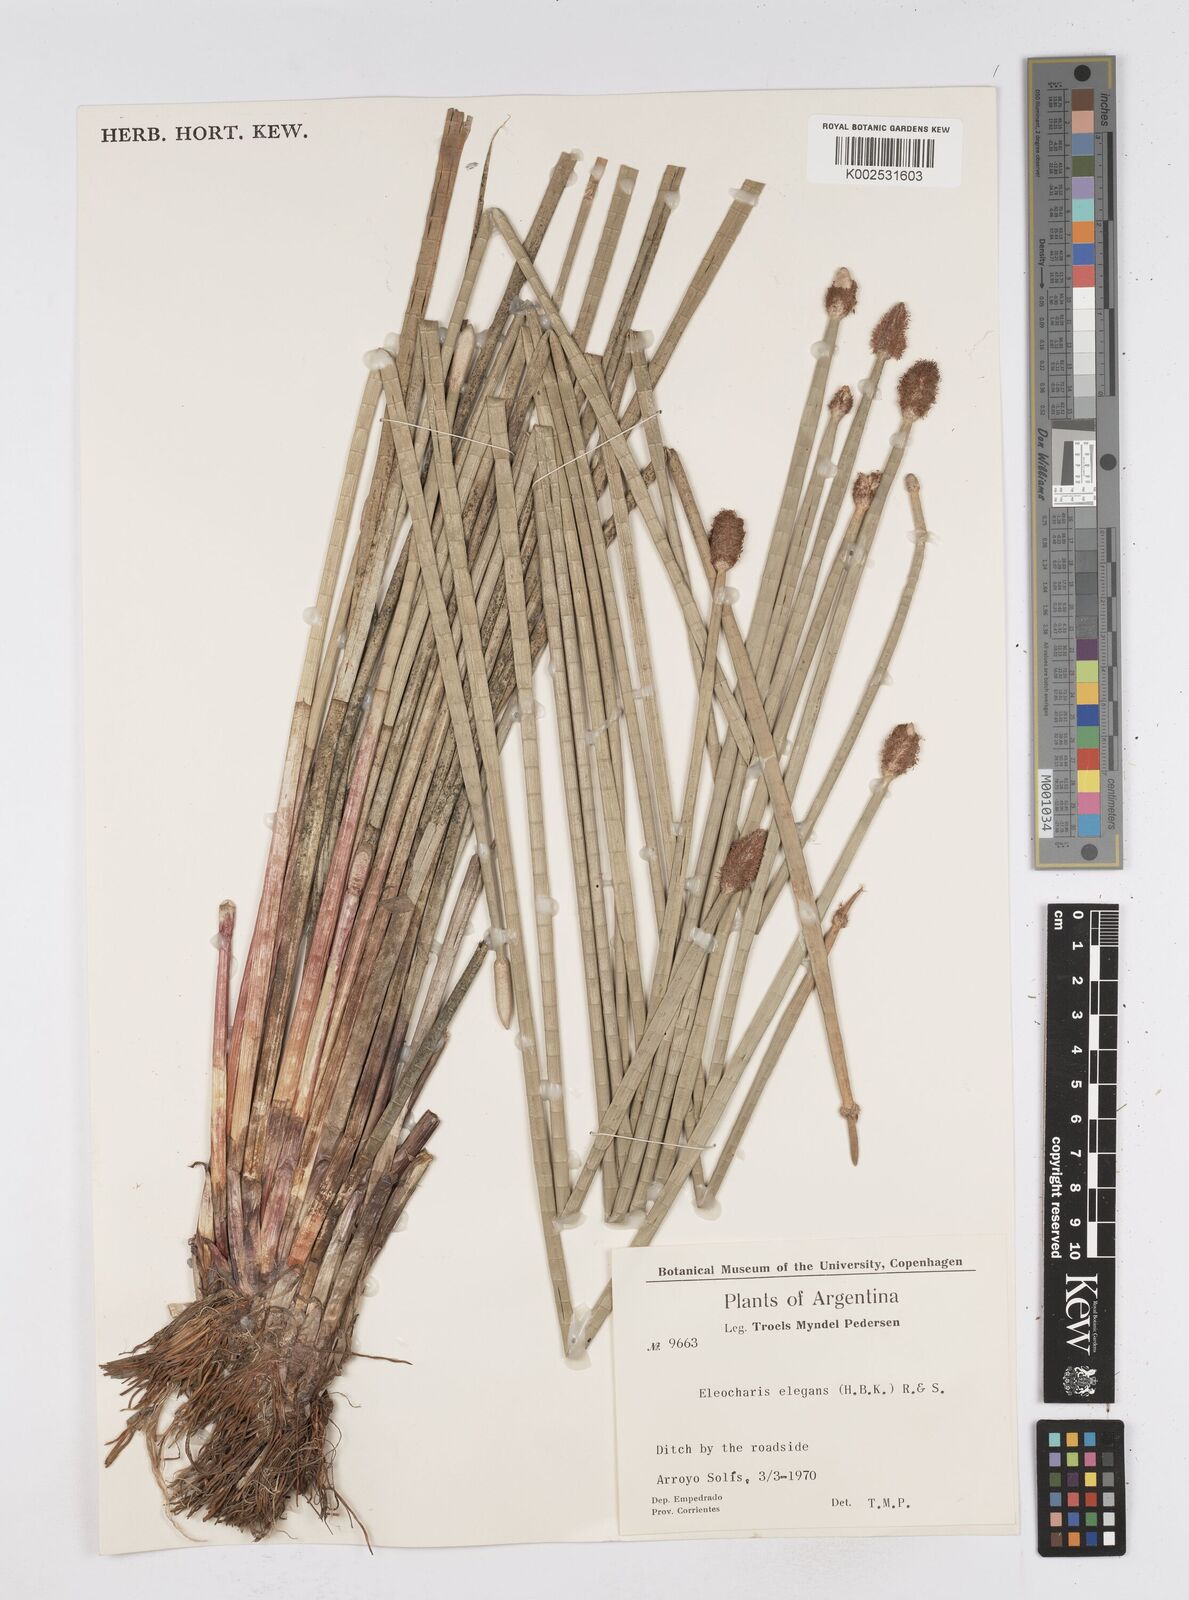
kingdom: Plantae
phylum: Tracheophyta
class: Liliopsida
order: Poales
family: Cyperaceae
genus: Eleocharis
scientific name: Eleocharis elegans
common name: Elegant spike-rush
